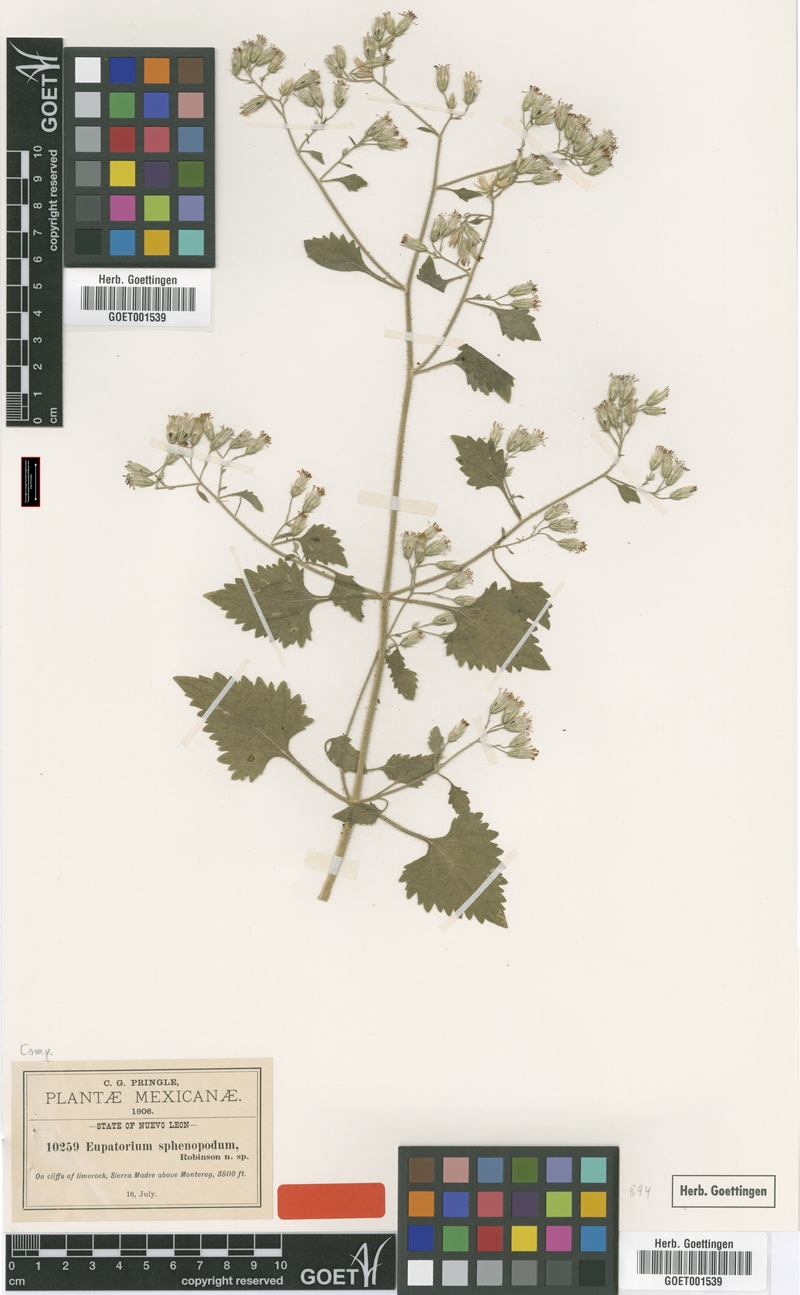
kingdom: Plantae
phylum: Tracheophyta
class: Magnoliopsida
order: Asterales
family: Asteraceae
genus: Flyriella
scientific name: Flyriella parryi
